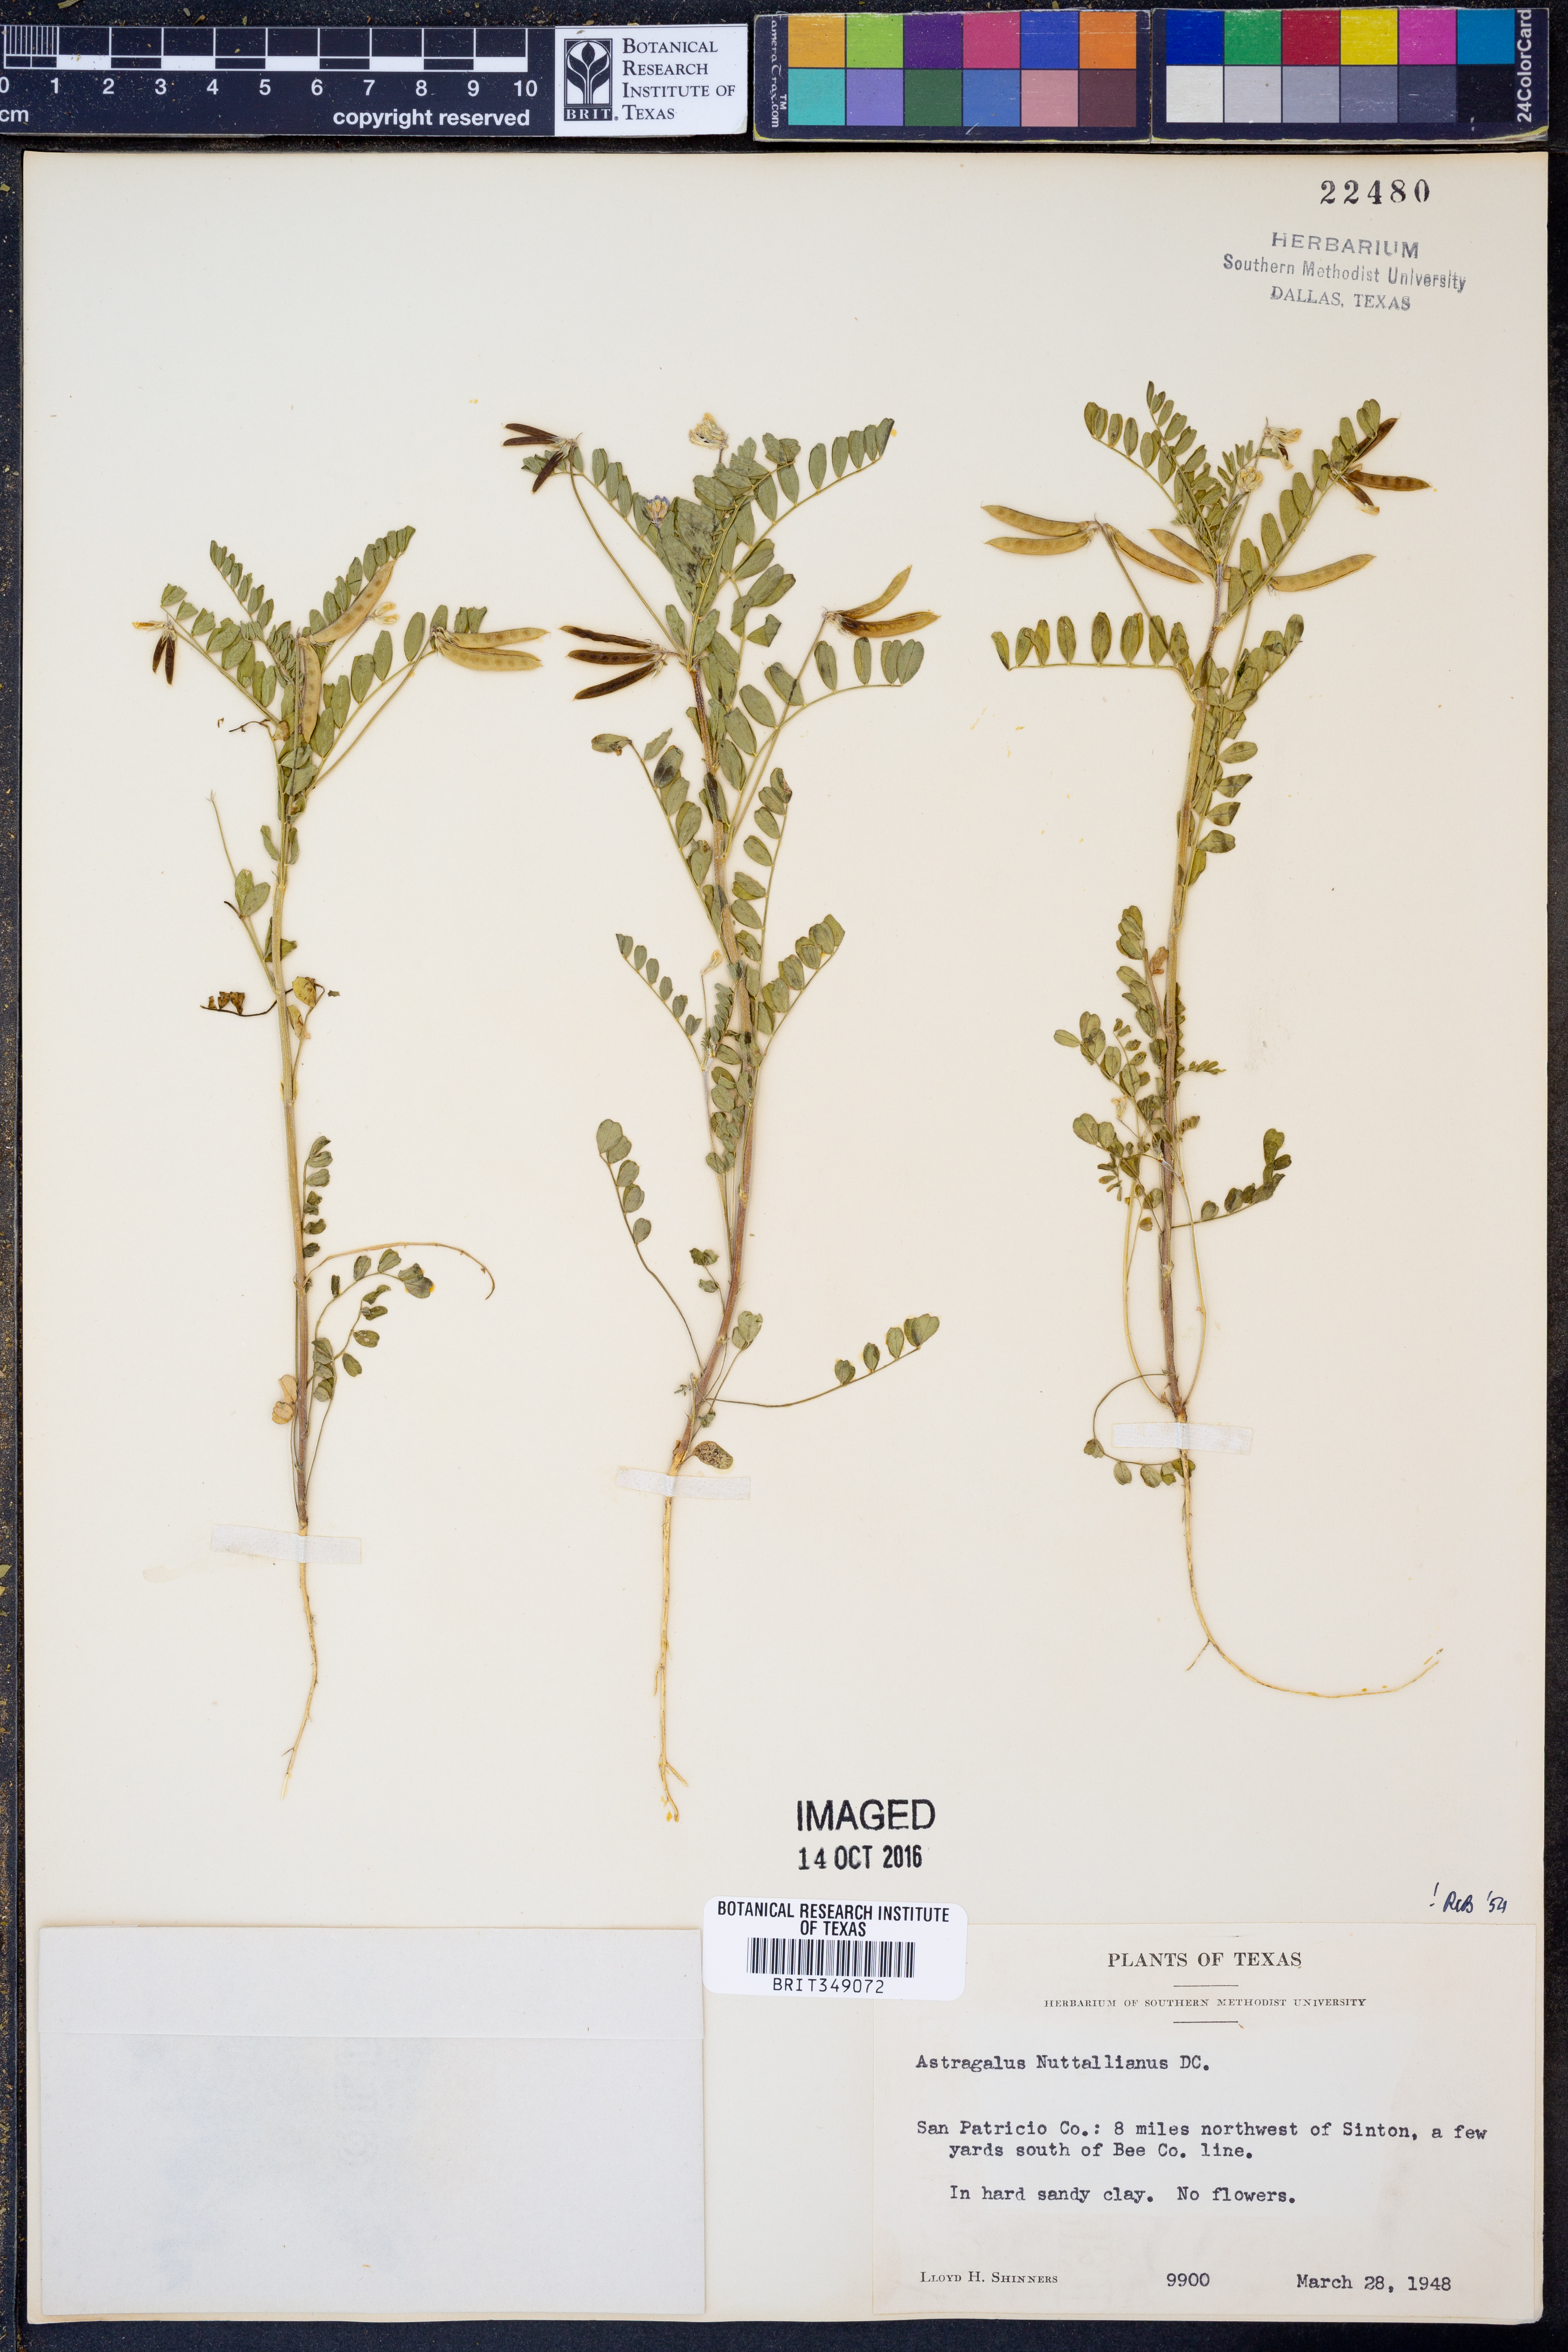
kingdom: Plantae
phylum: Tracheophyta
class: Magnoliopsida
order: Fabales
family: Fabaceae
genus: Astragalus
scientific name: Astragalus nuttallianus
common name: Smallflowered milkvetch
